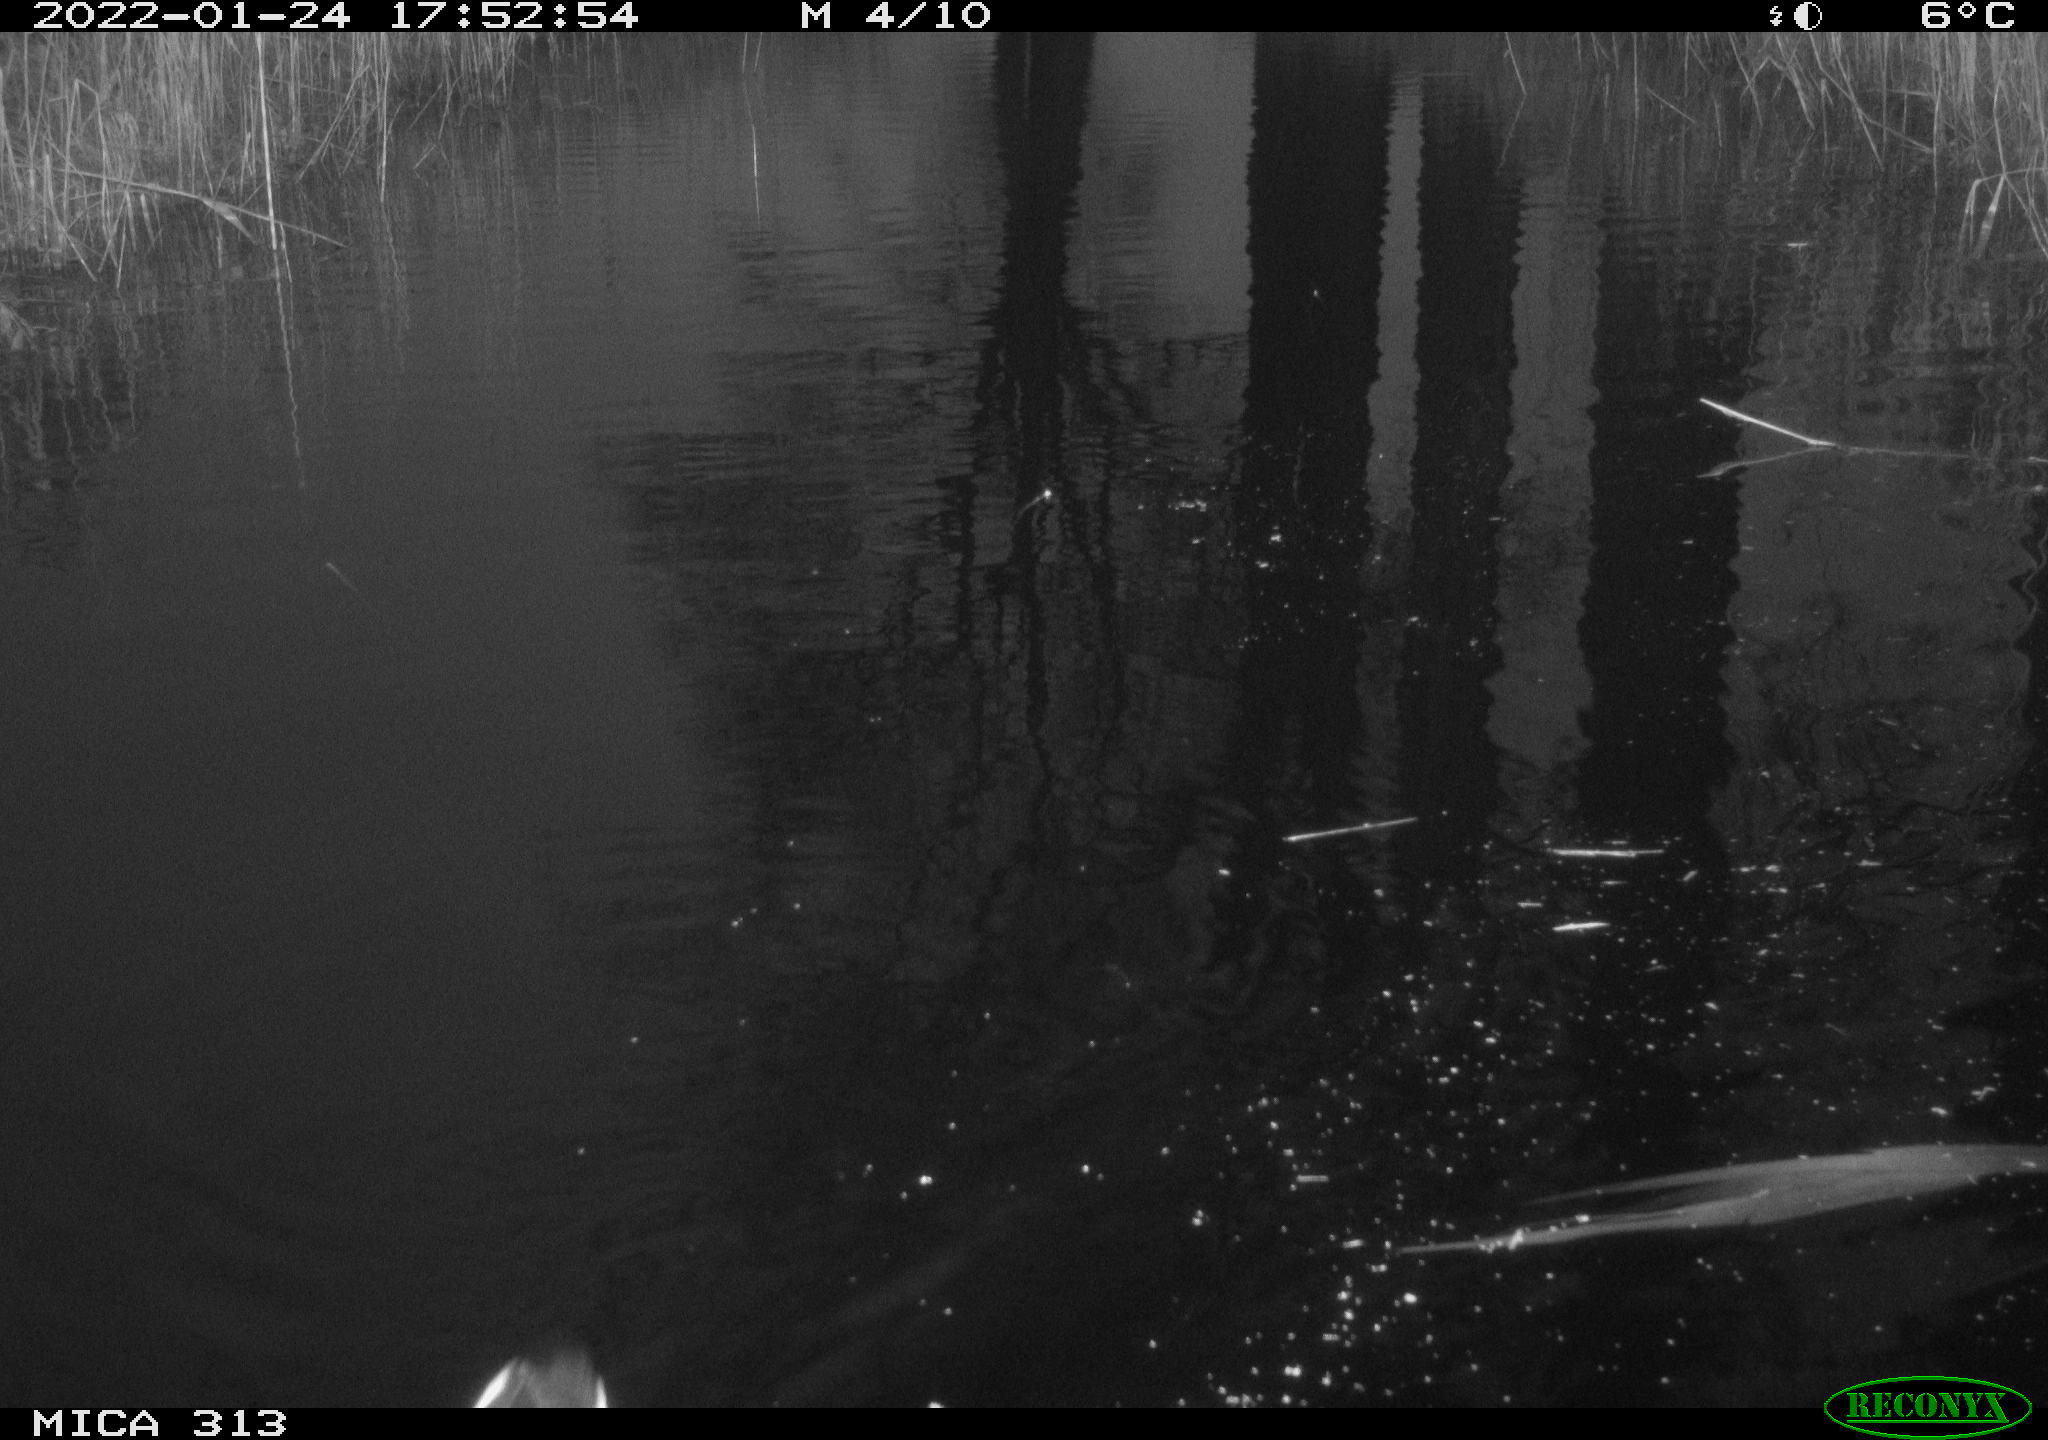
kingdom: Animalia
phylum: Chordata
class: Aves
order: Gruiformes
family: Rallidae
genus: Gallinula
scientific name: Gallinula chloropus
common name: Common moorhen
